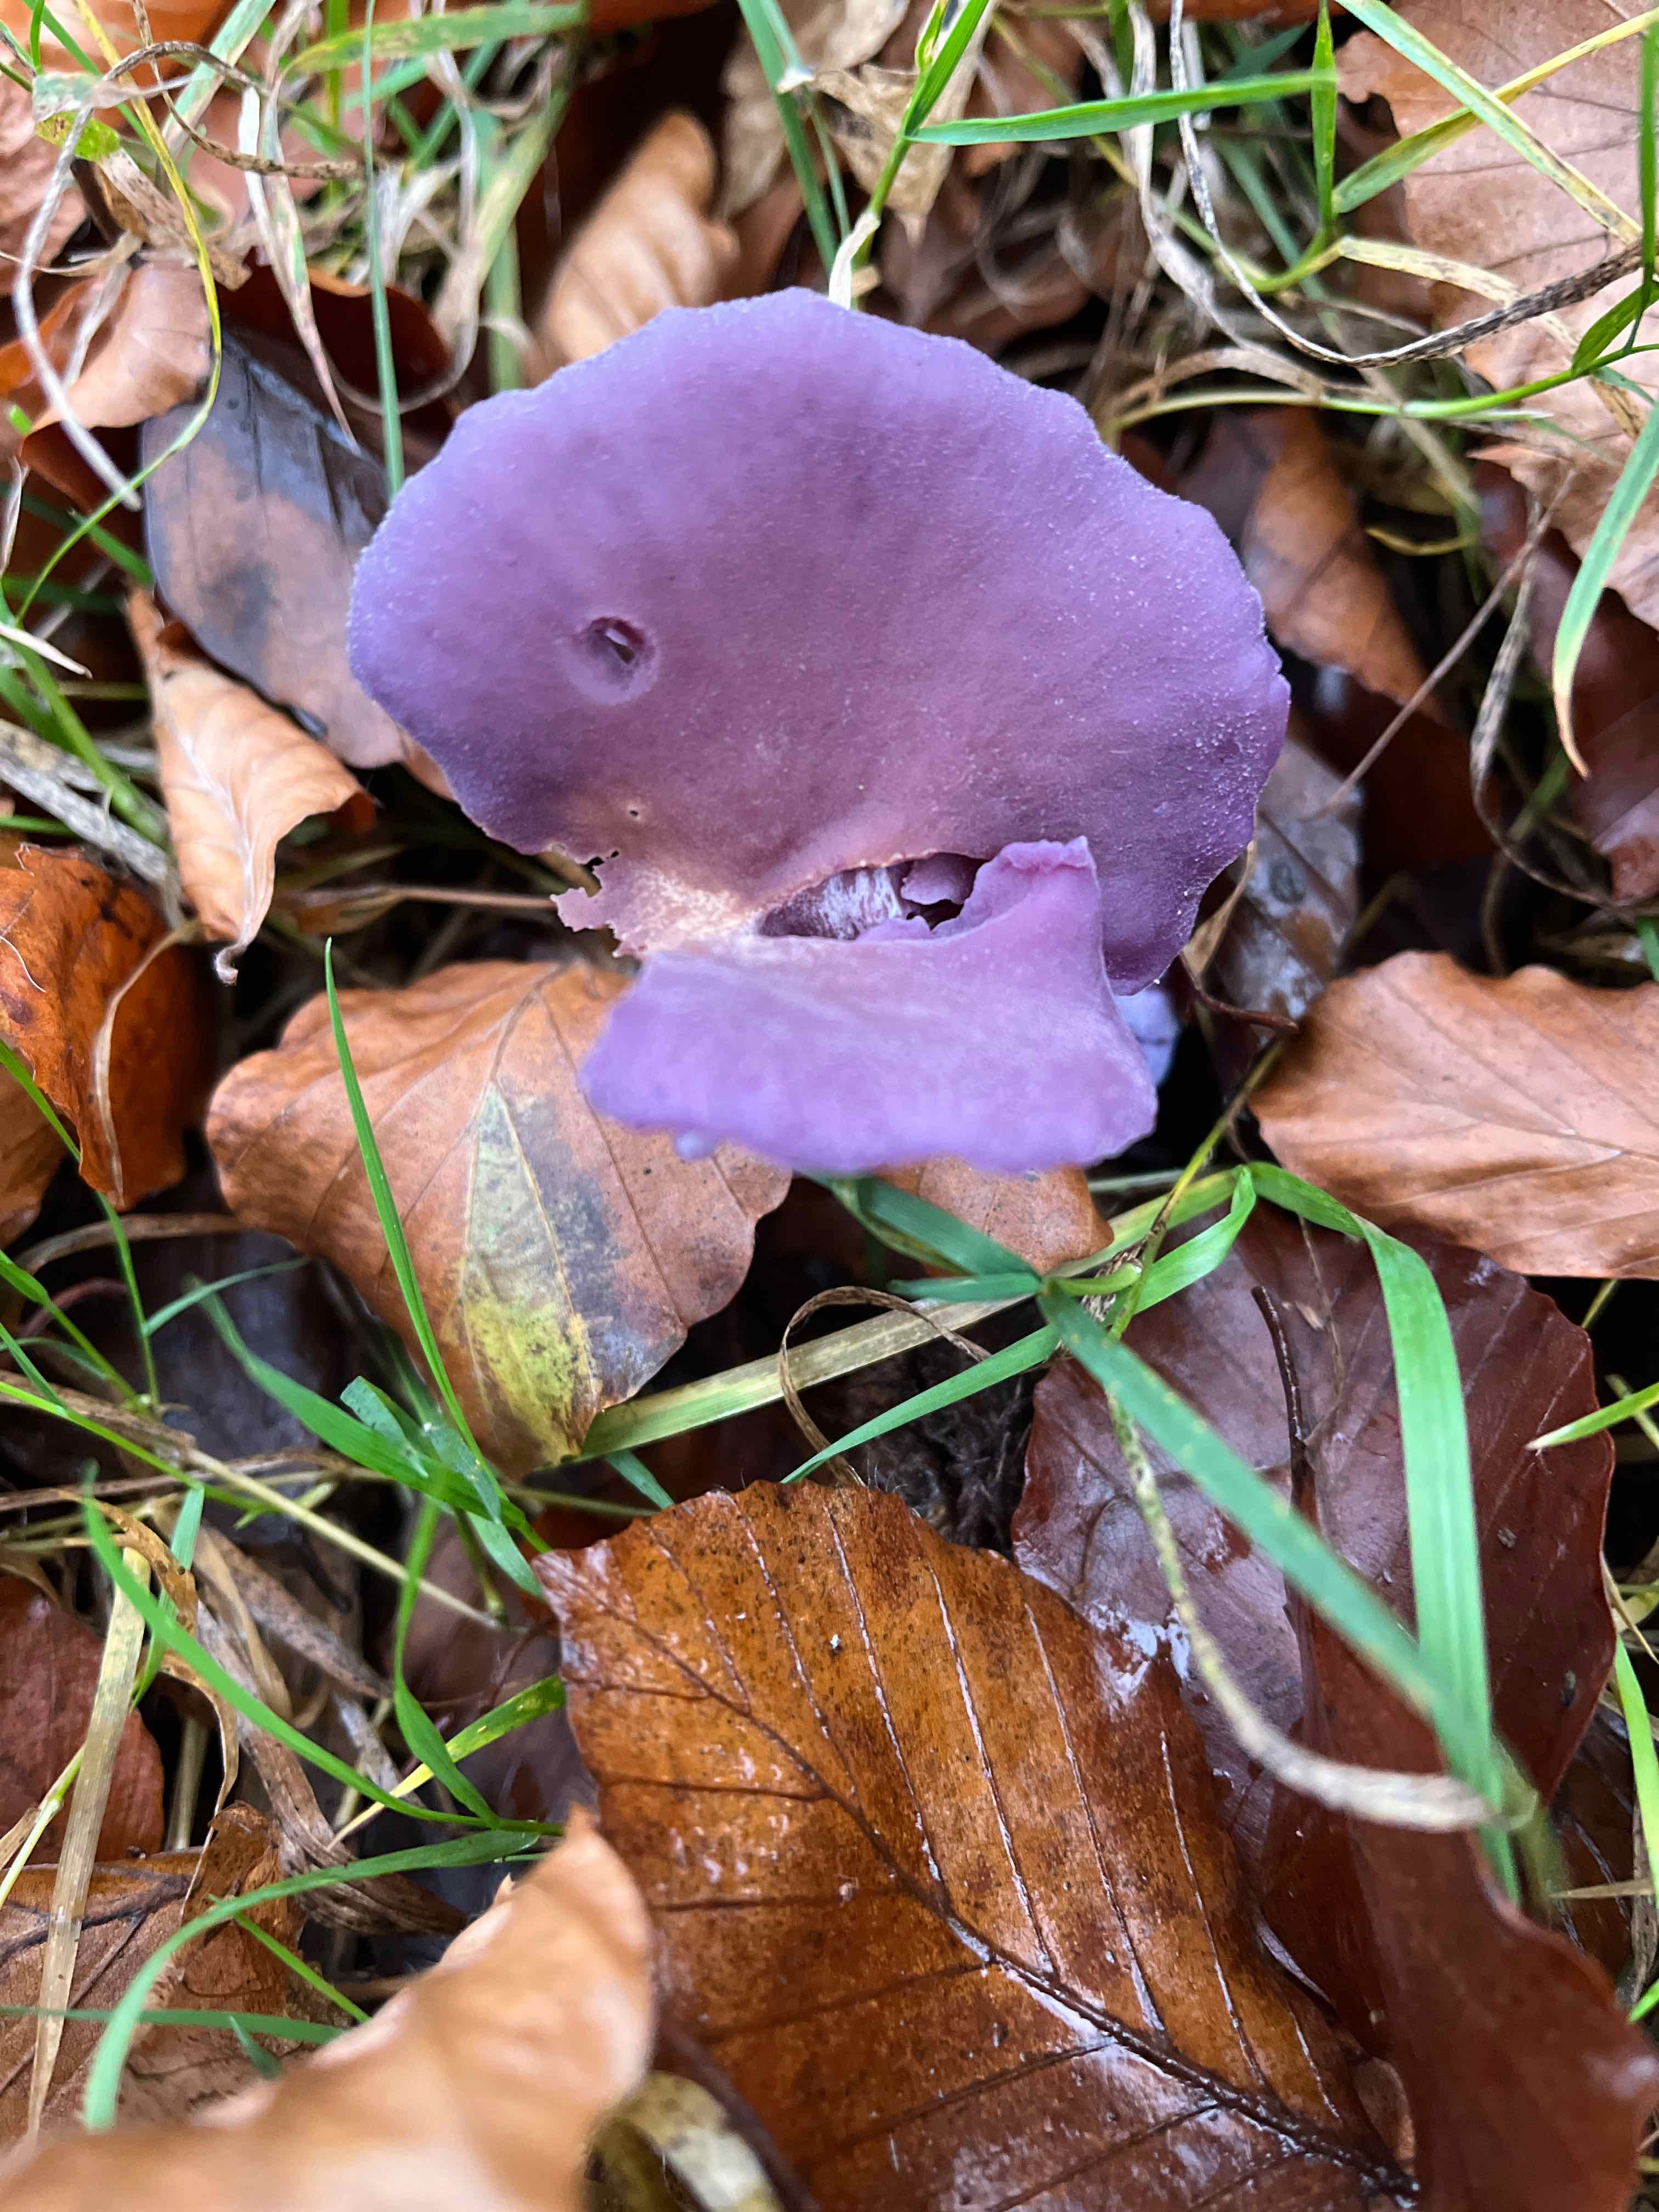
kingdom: Fungi
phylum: Basidiomycota
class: Agaricomycetes
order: Agaricales
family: Hydnangiaceae
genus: Laccaria
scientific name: Laccaria amethystina
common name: violet ametysthat
